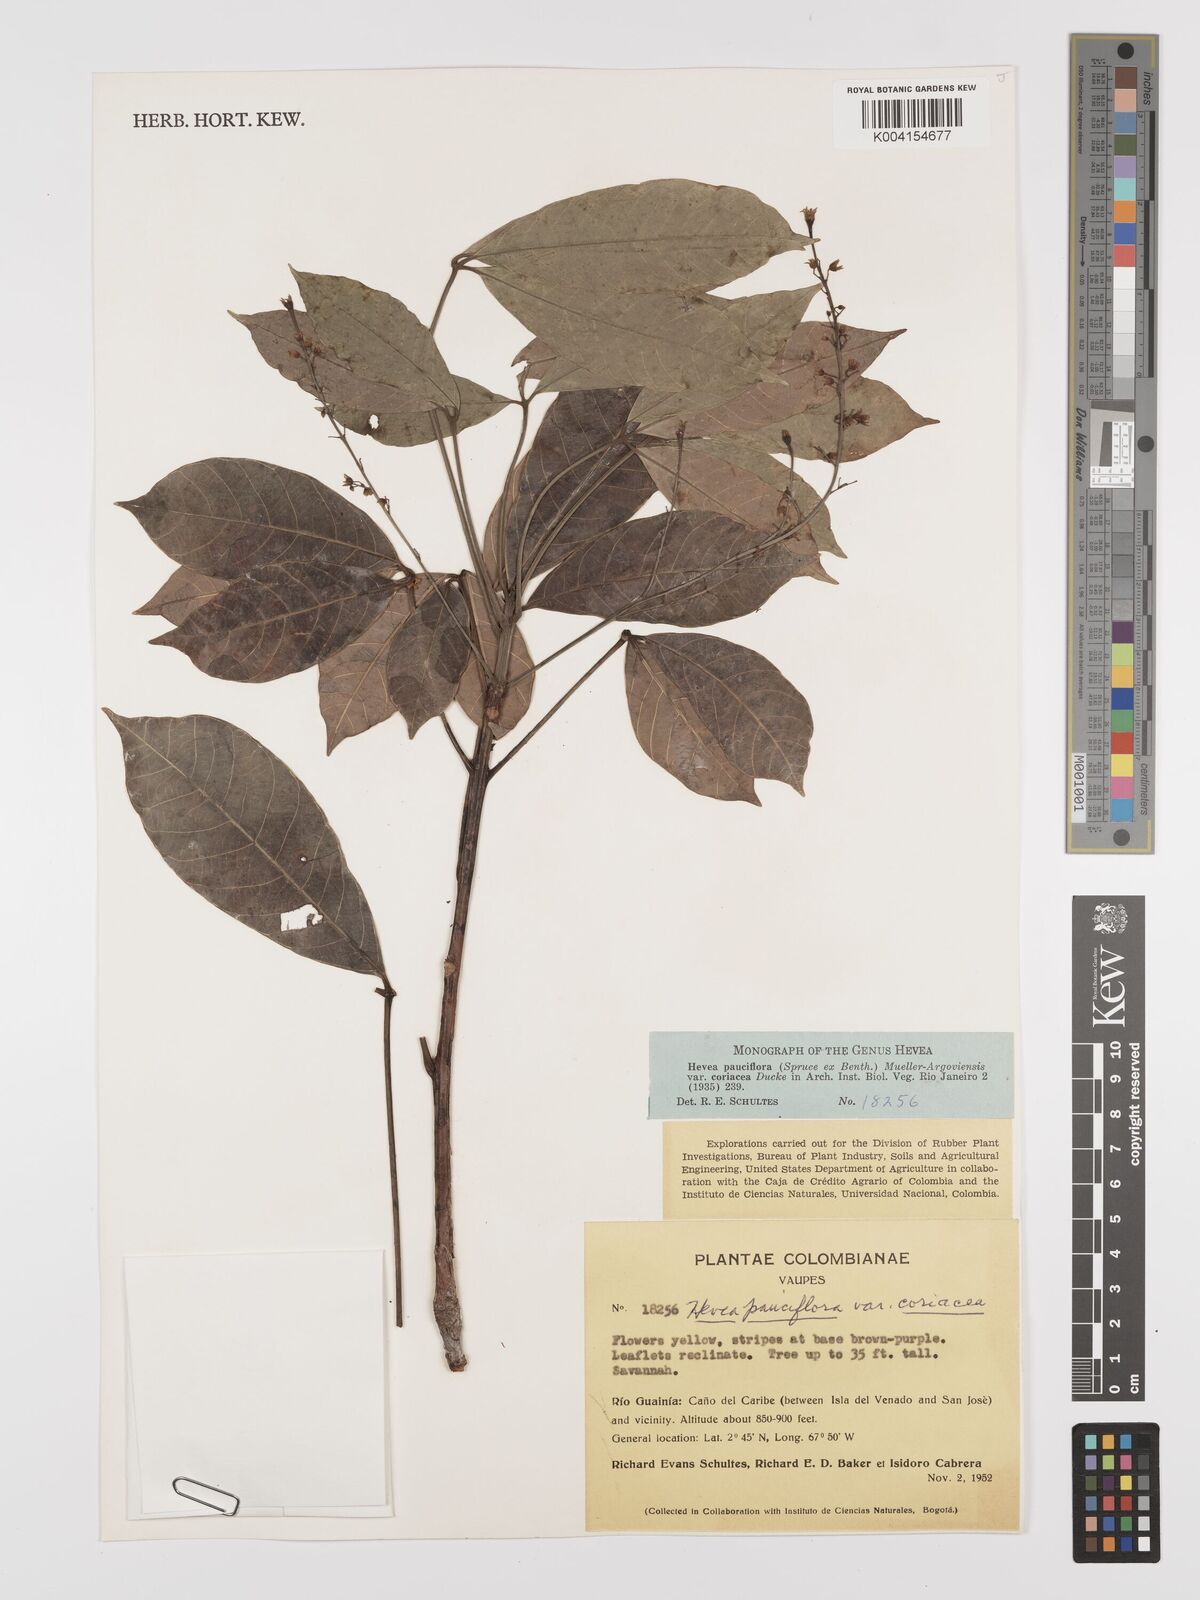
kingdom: Plantae
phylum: Tracheophyta
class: Magnoliopsida
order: Malpighiales
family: Euphorbiaceae
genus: Hevea
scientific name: Hevea pauciflora
